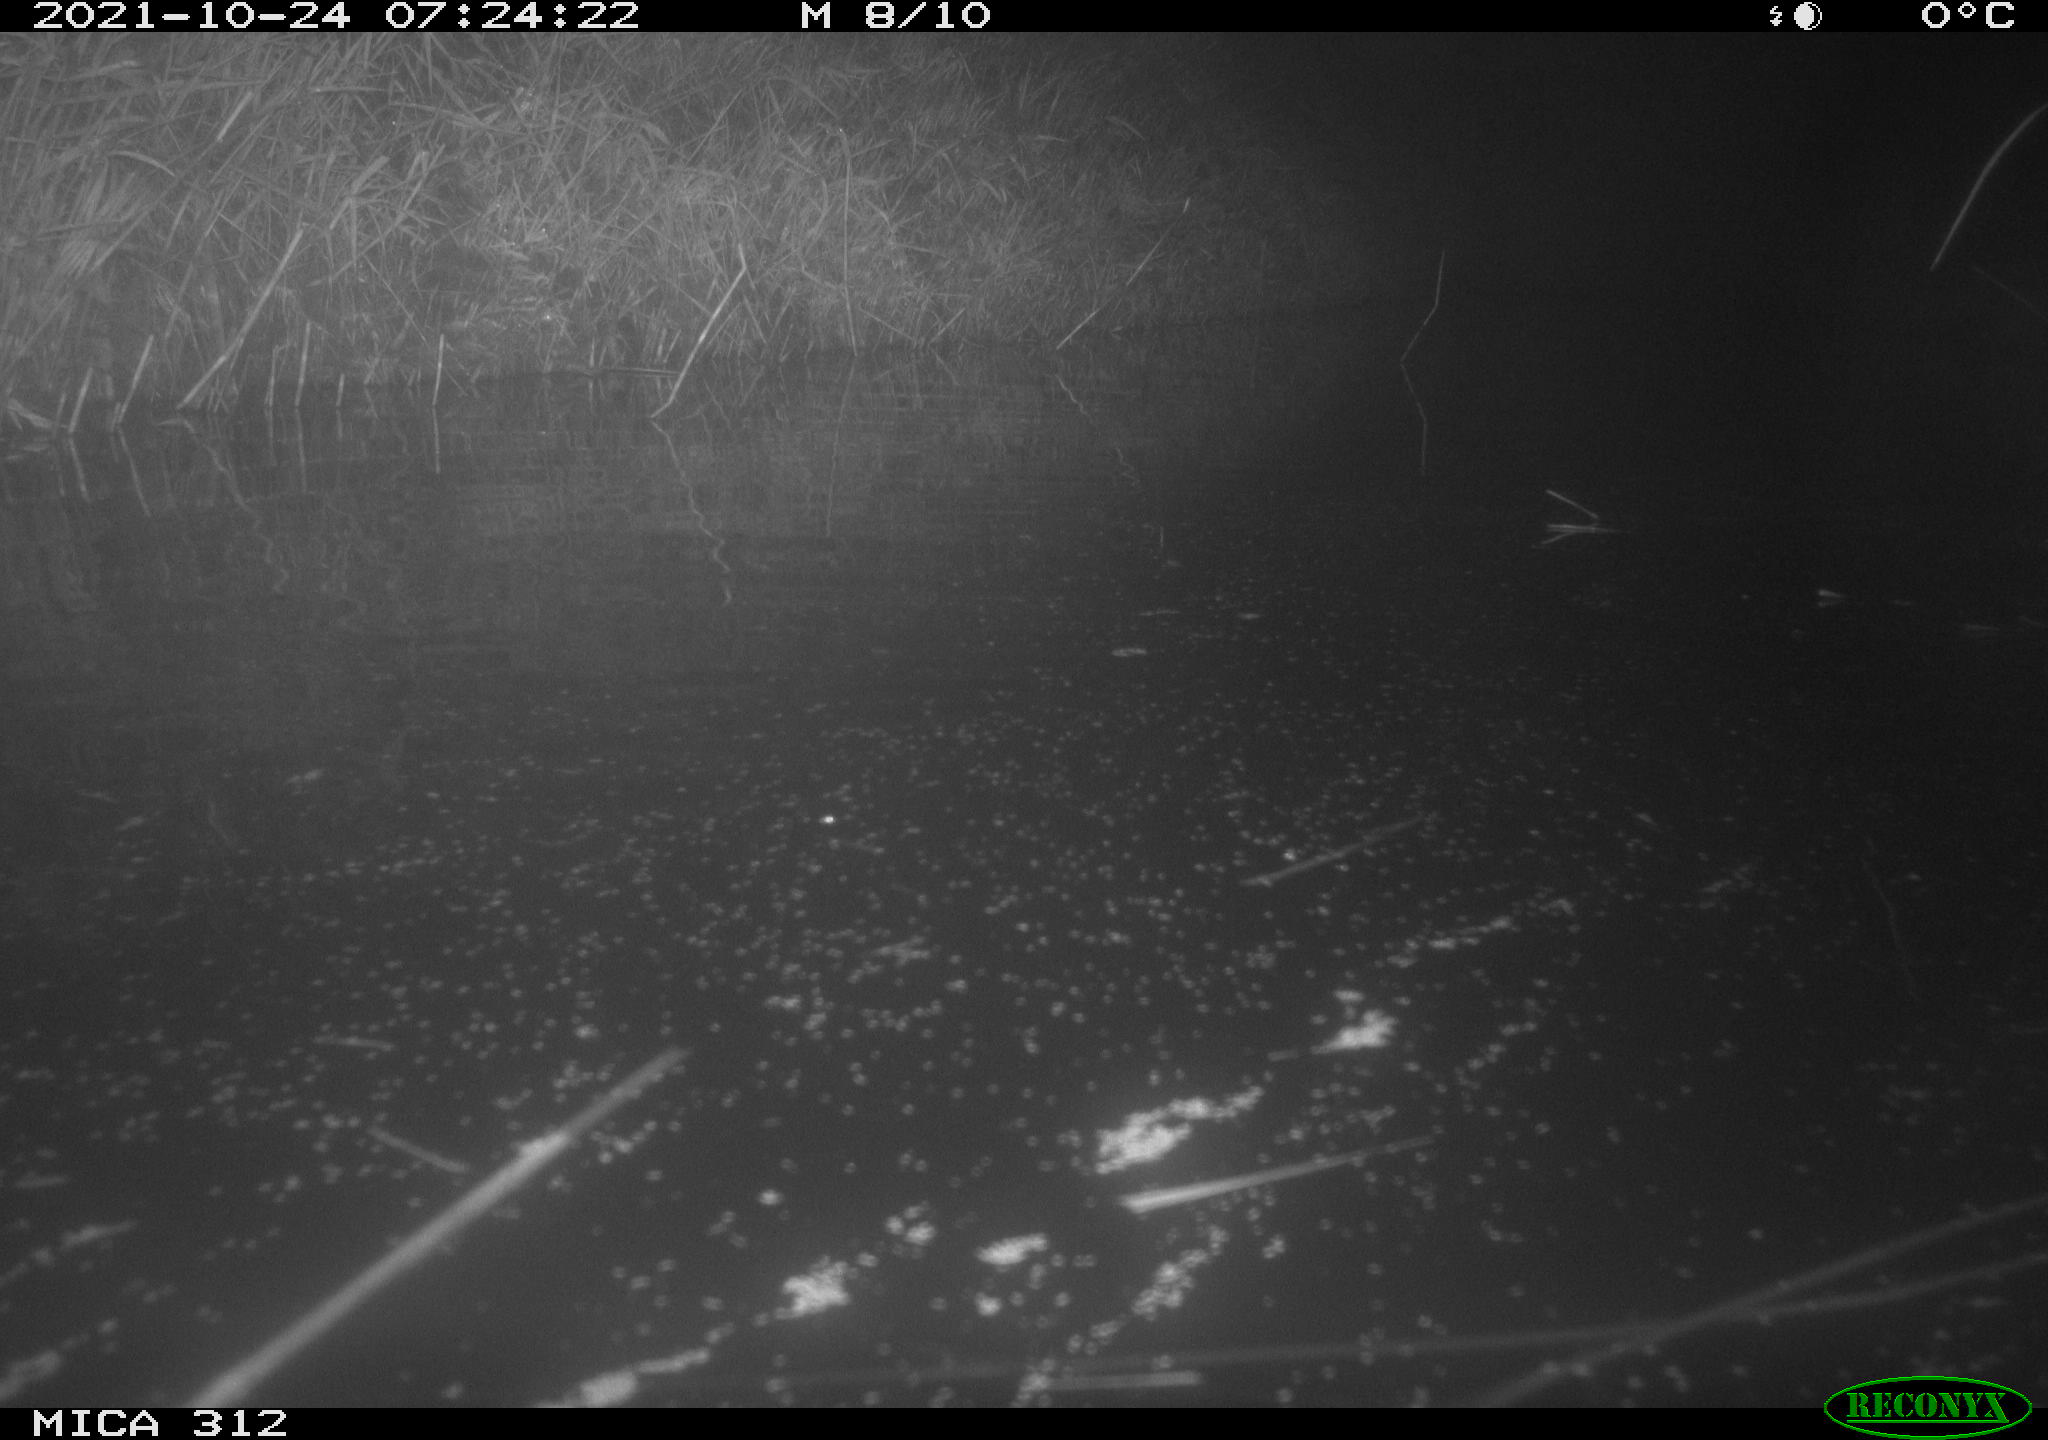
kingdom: Animalia
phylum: Chordata
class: Mammalia
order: Rodentia
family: Muridae
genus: Rattus
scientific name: Rattus norvegicus
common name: Brown rat
